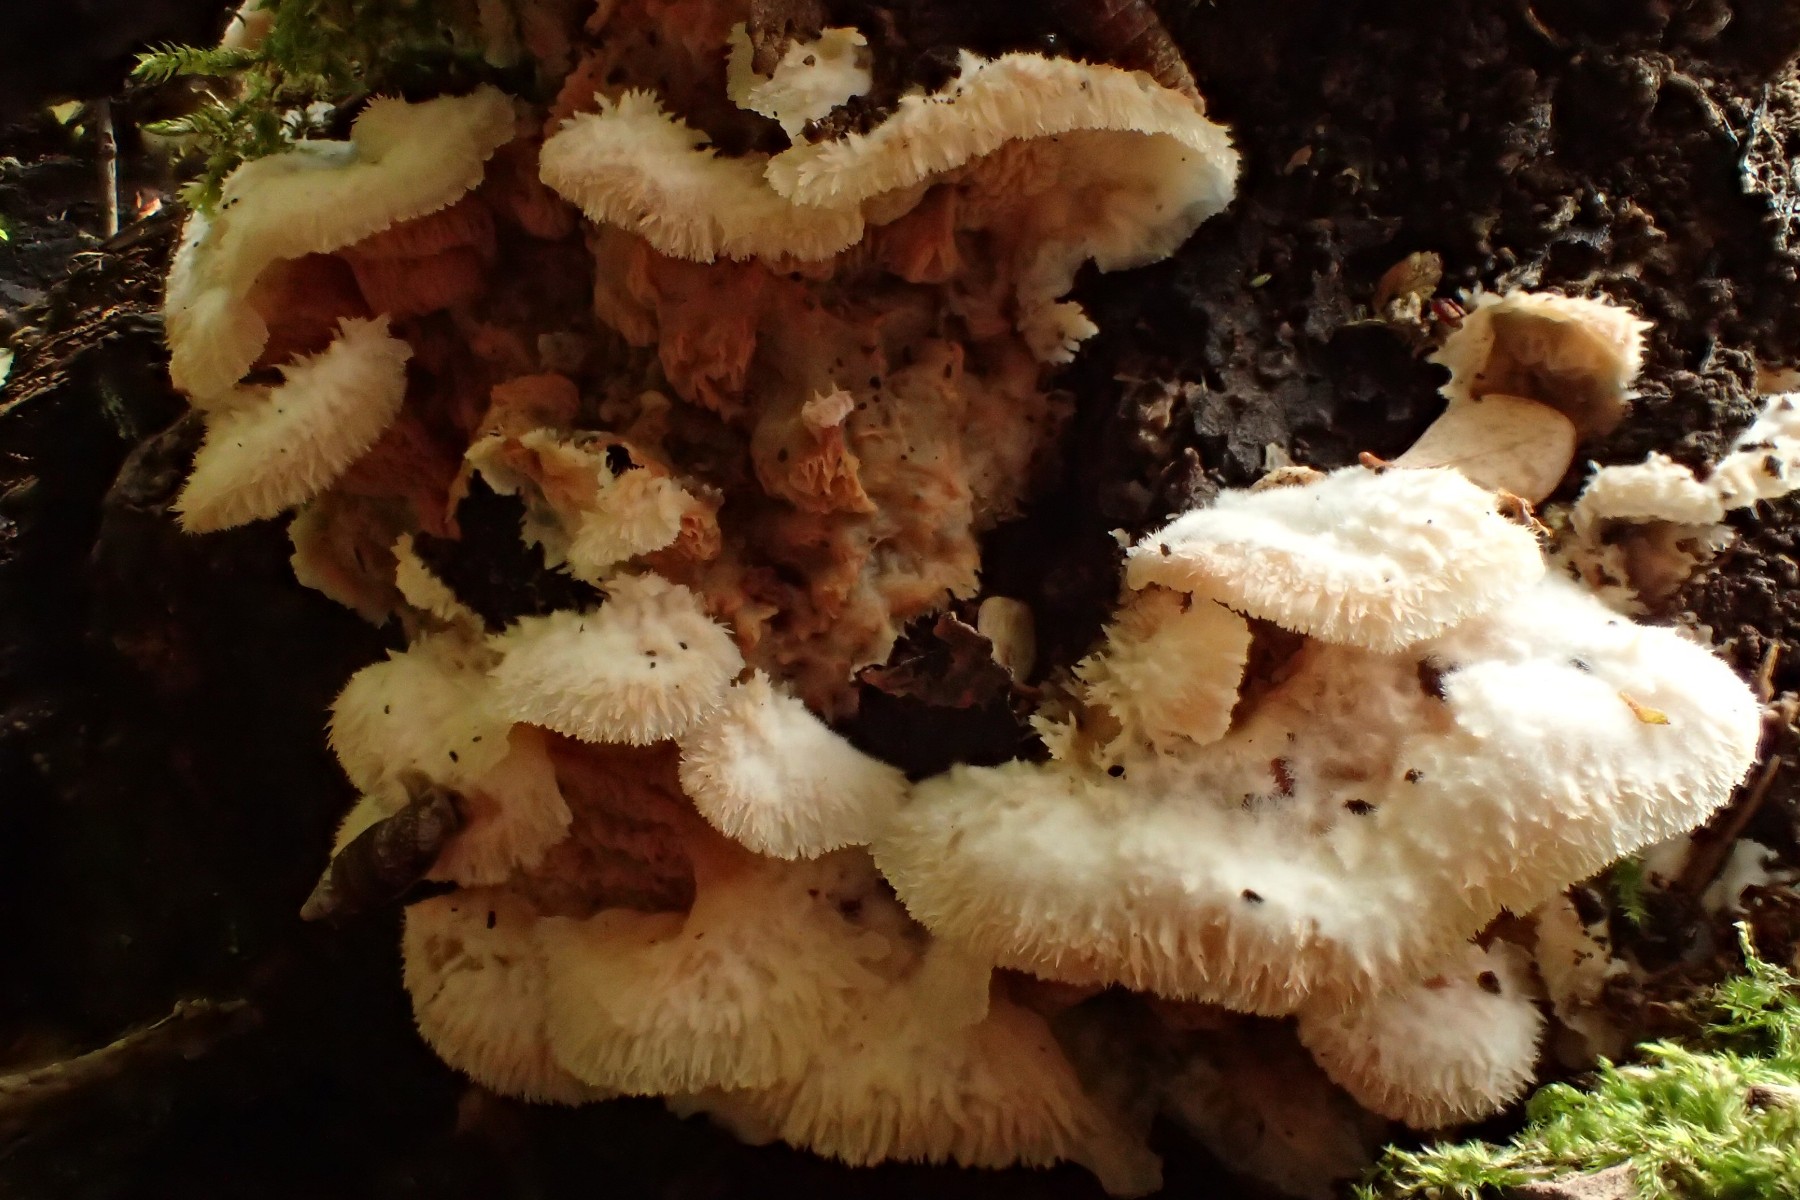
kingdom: Fungi
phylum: Basidiomycota
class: Agaricomycetes
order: Polyporales
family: Meruliaceae
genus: Phlebia
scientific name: Phlebia tremellosa
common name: bævrende åresvamp
